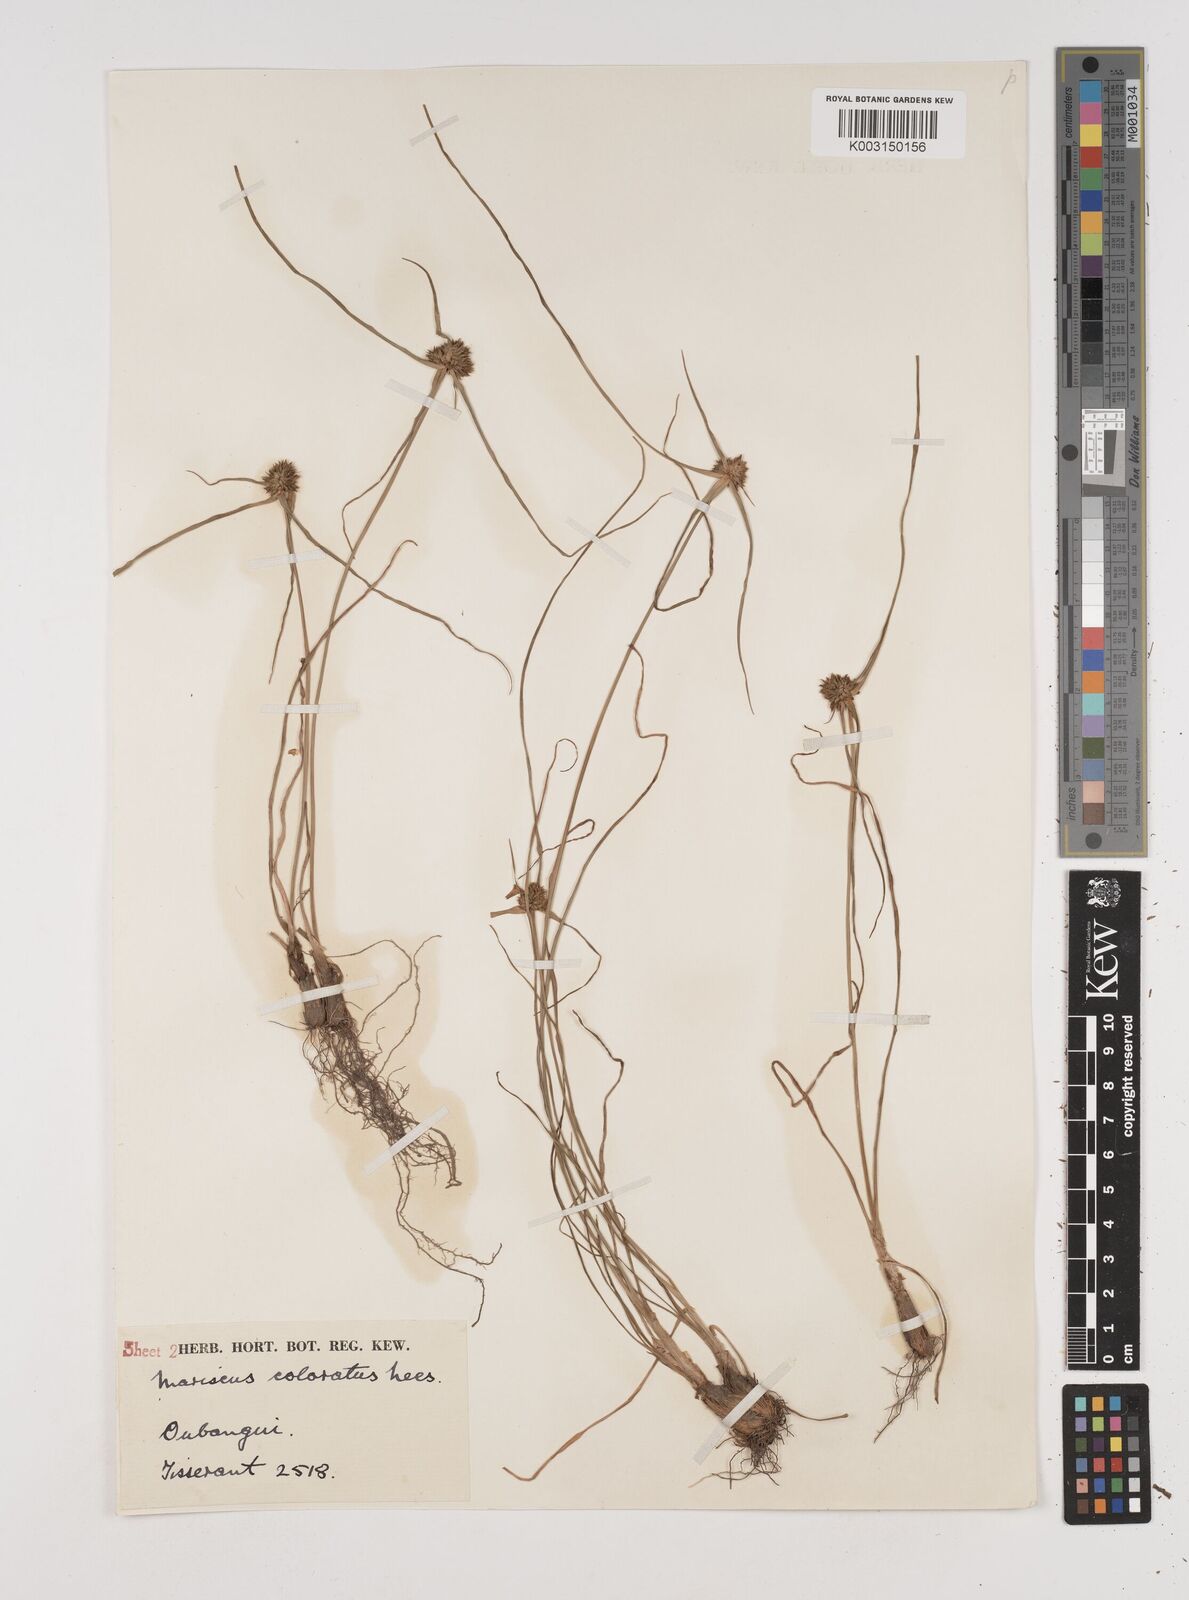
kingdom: Plantae
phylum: Tracheophyta
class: Liliopsida
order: Poales
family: Cyperaceae
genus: Cyperus
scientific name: Cyperus dubius
